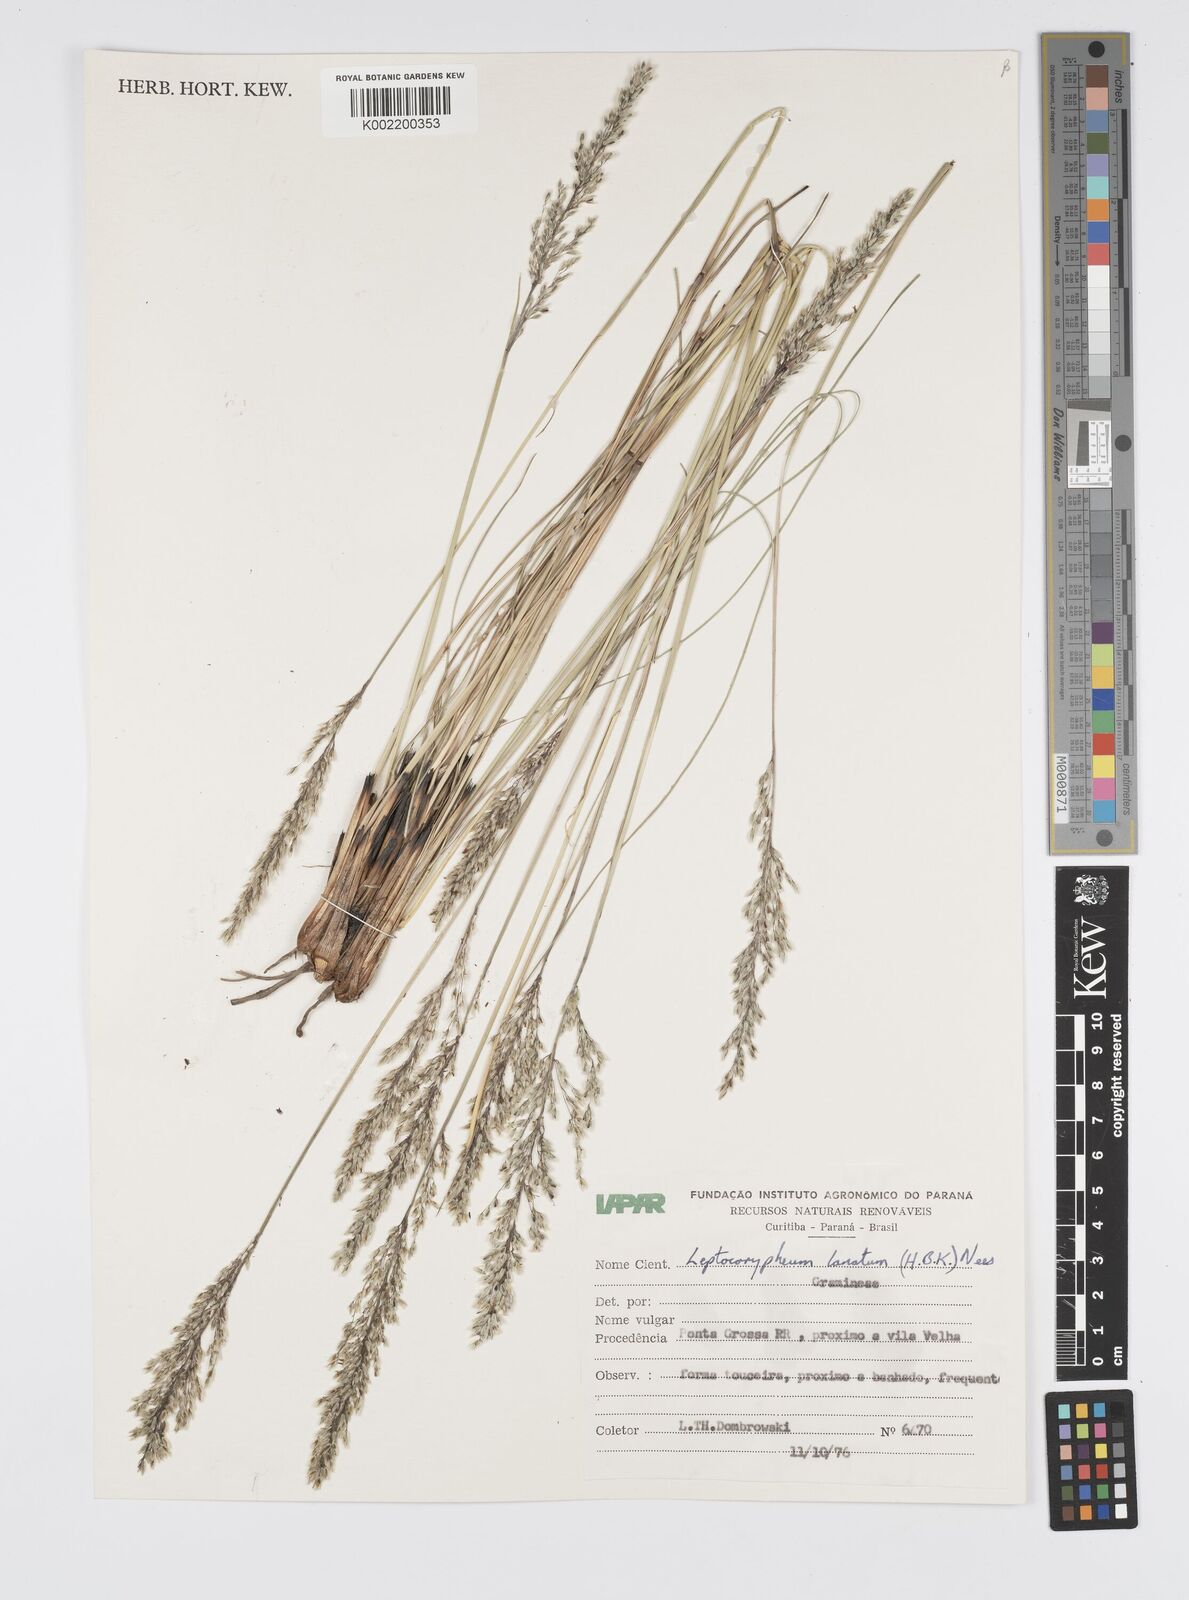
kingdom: Plantae
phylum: Tracheophyta
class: Liliopsida
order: Poales
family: Poaceae
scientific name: Poaceae
